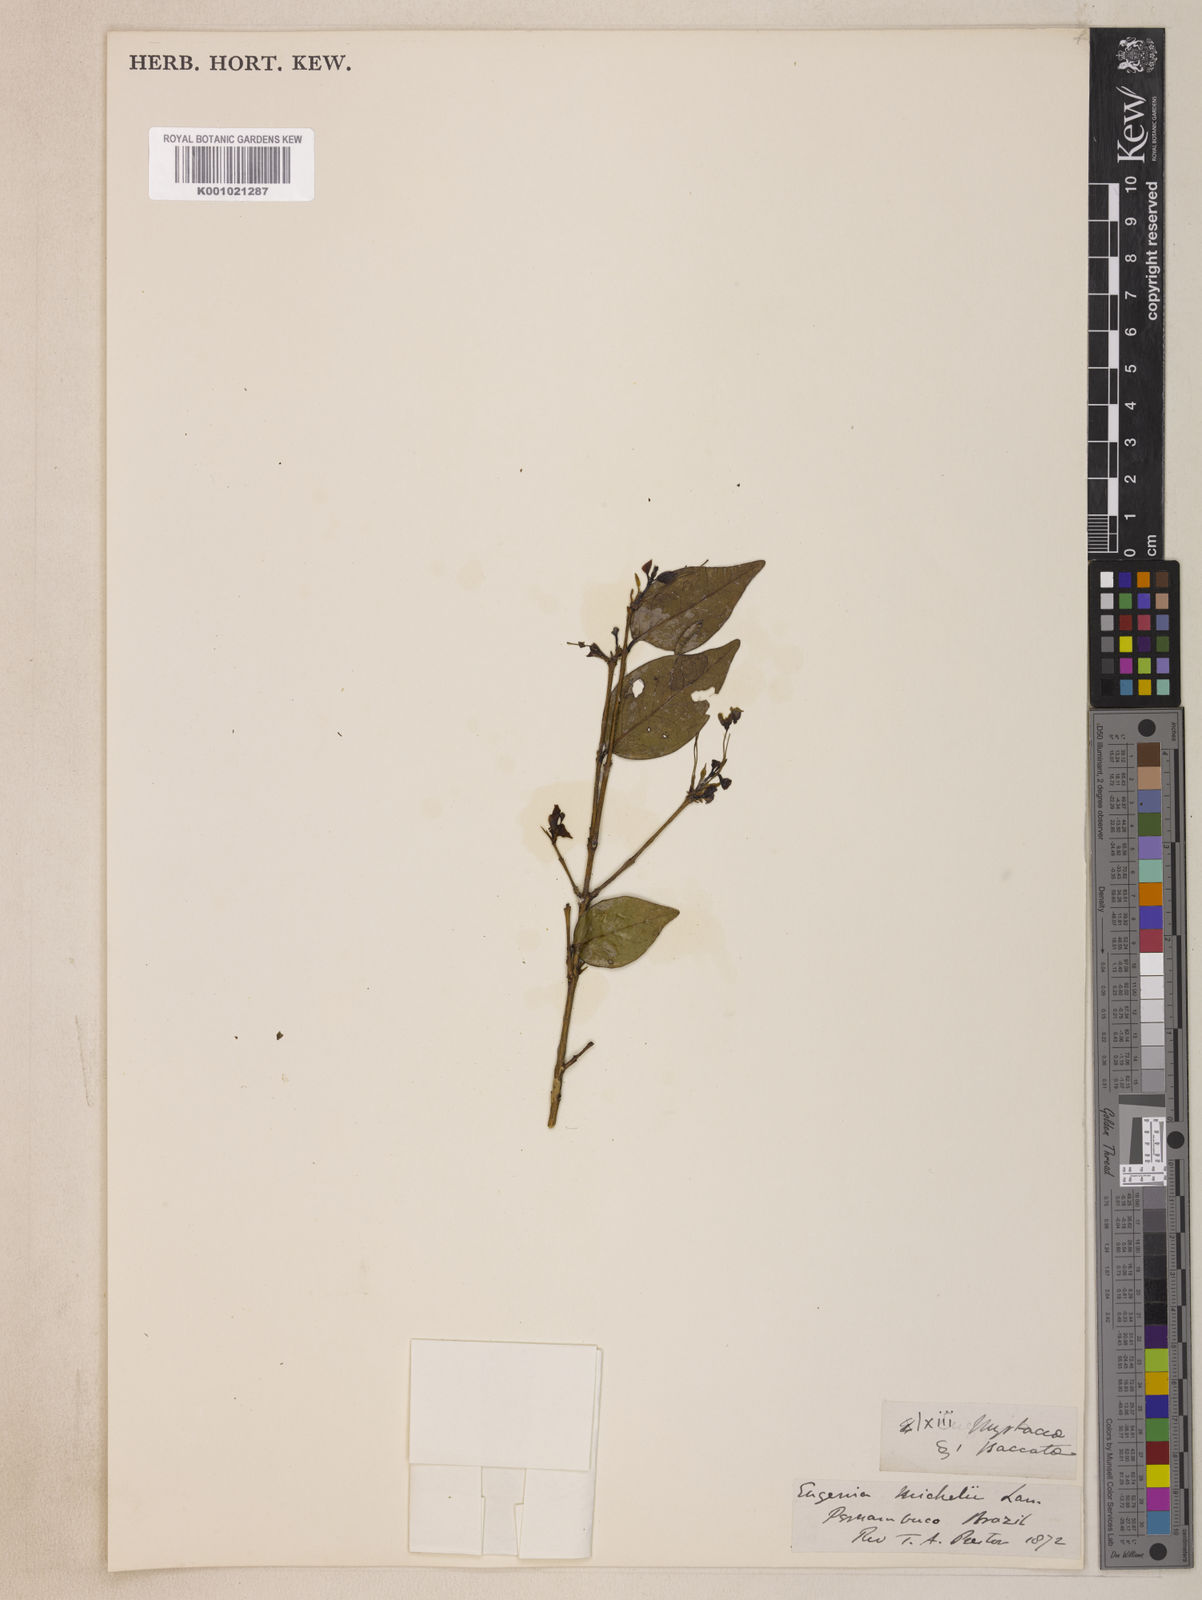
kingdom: Plantae
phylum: Tracheophyta
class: Magnoliopsida
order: Myrtales
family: Myrtaceae
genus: Eugenia
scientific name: Eugenia uniflora
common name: Surinam cherry
